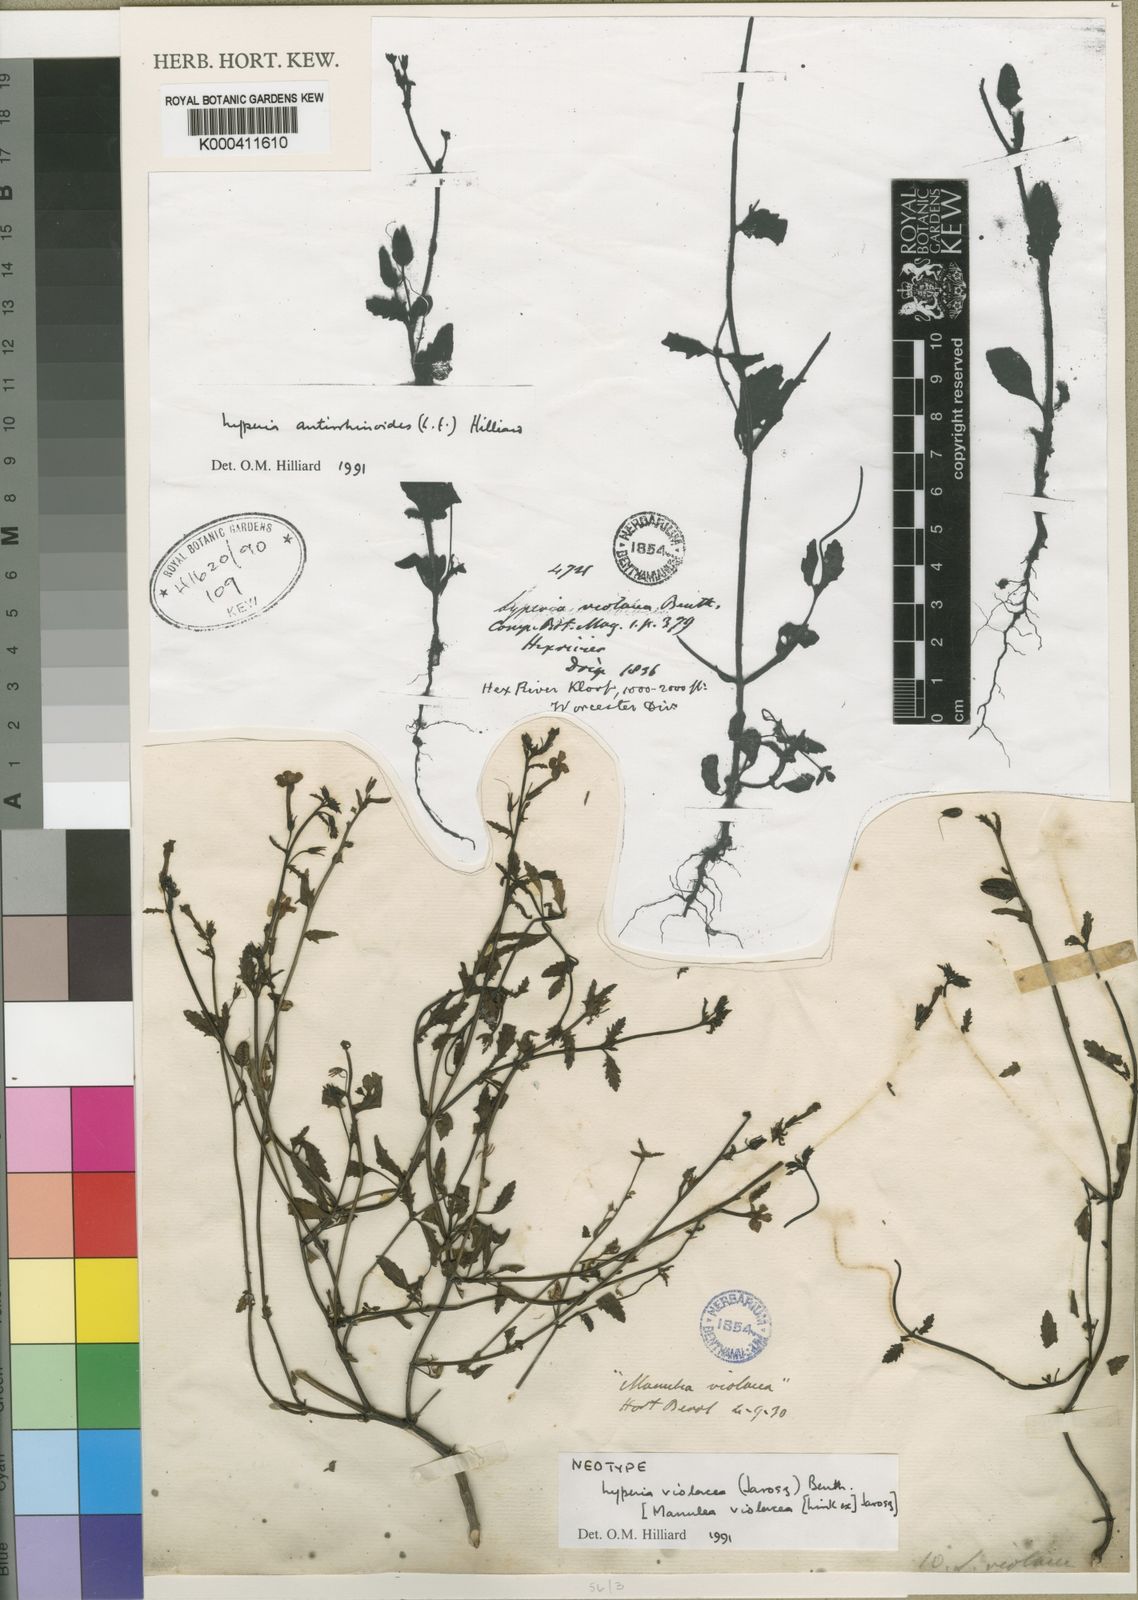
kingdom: Plantae
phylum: Tracheophyta
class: Magnoliopsida
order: Lamiales
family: Scrophulariaceae
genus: Lyperia
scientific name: Lyperia violacea
